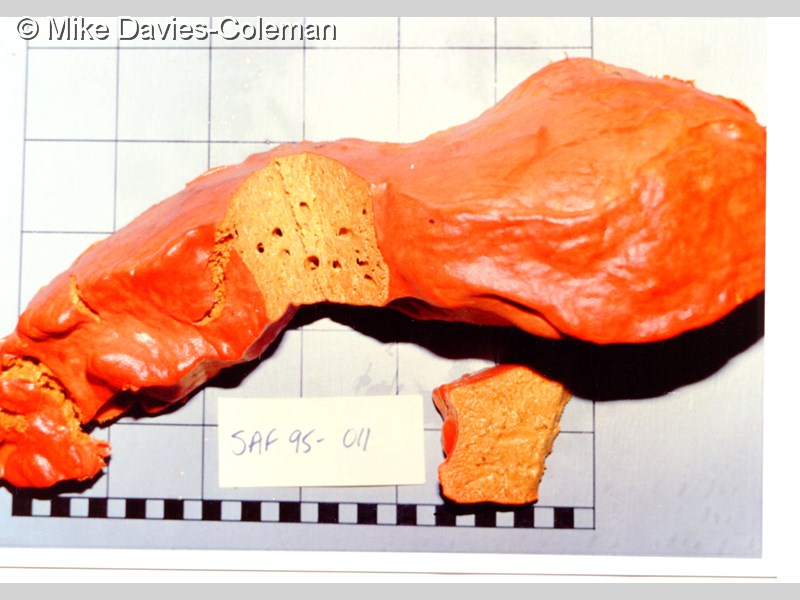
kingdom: Animalia
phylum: Porifera
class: Demospongiae
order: Clionaida
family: Clionaidae
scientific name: Clionaidae
